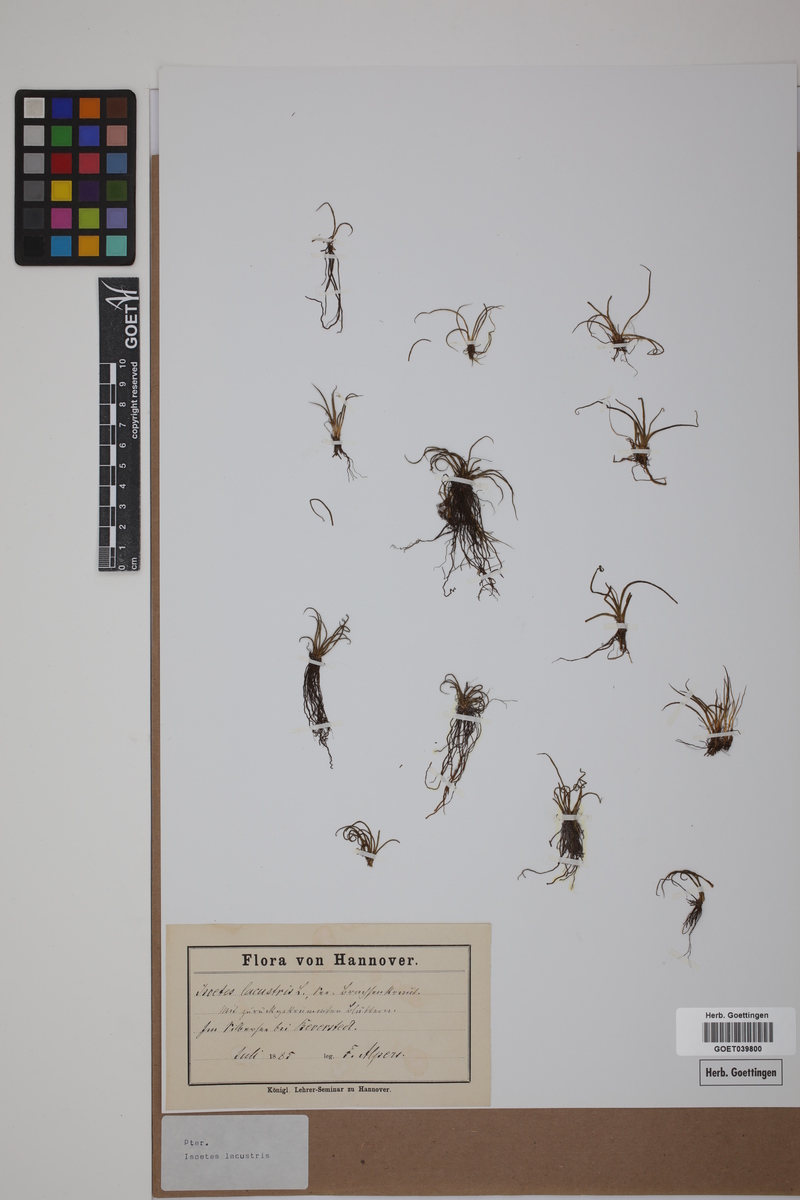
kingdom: Plantae
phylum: Tracheophyta
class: Lycopodiopsida
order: Isoetales
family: Isoetaceae
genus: Isoetes
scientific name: Isoetes lacustris
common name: Common quillwort
